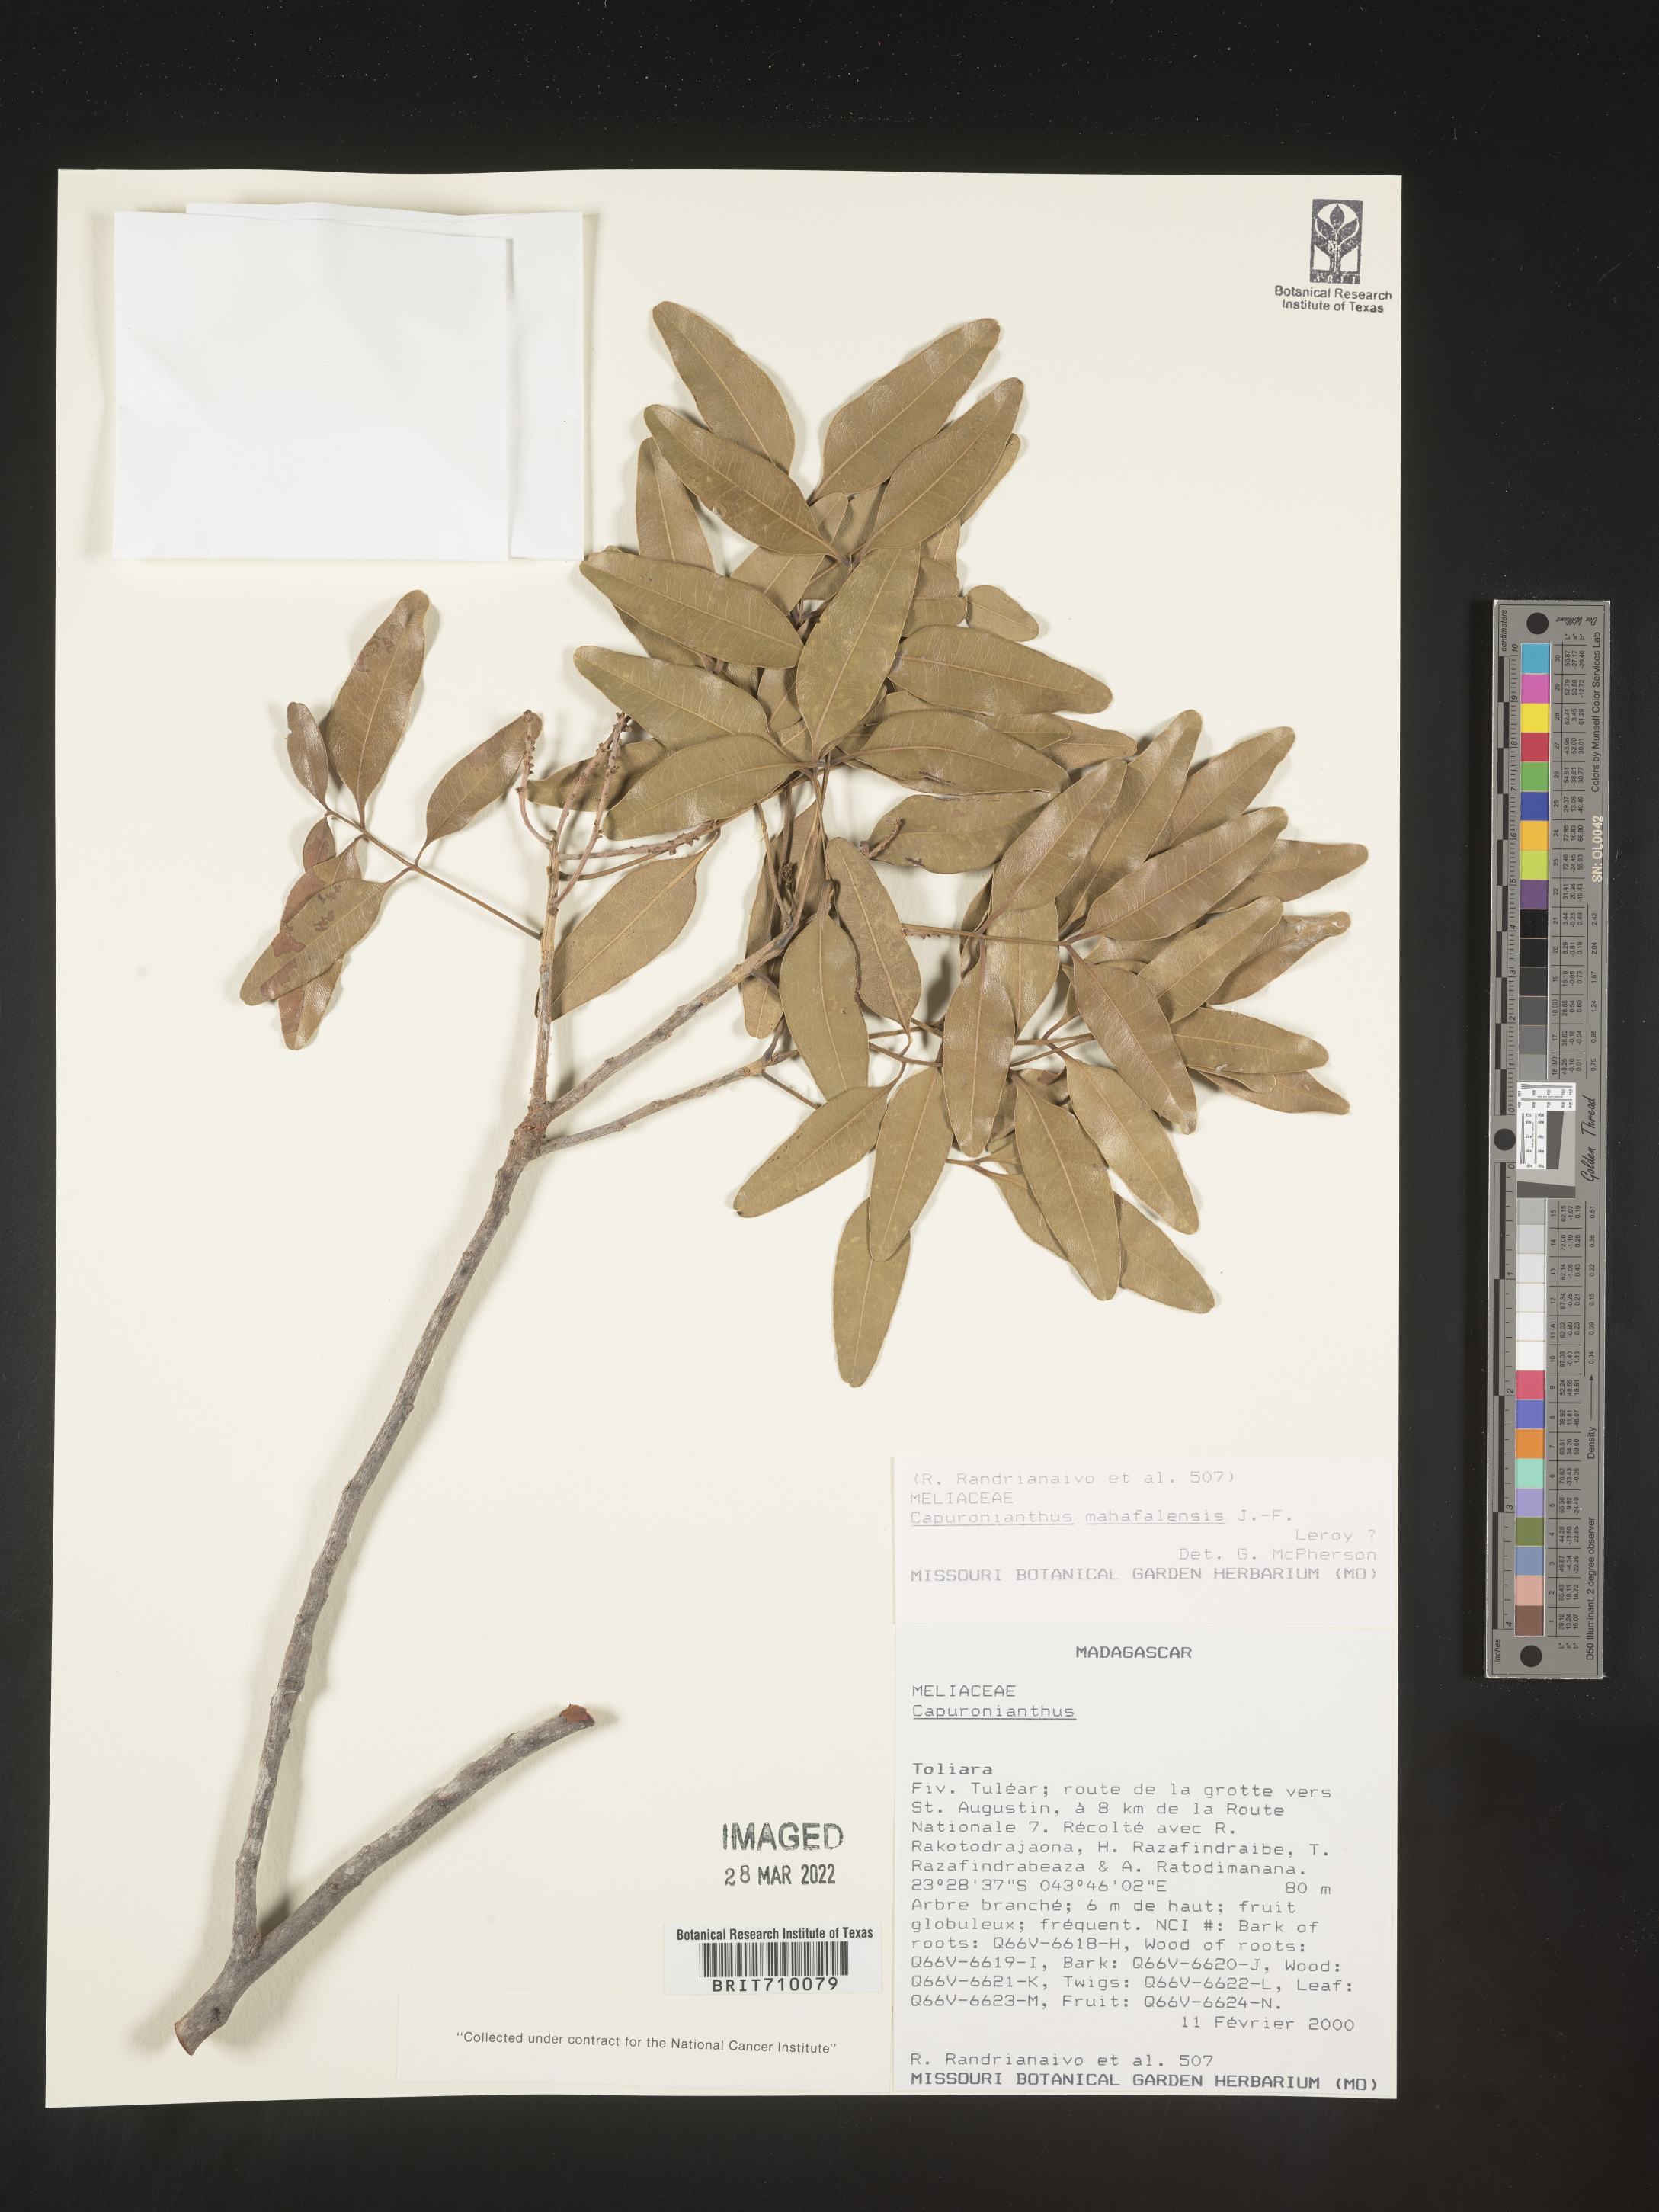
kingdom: Plantae
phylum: Tracheophyta
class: Magnoliopsida
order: Sapindales
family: Meliaceae
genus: Capuronianthus
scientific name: Capuronianthus mahafalensis
